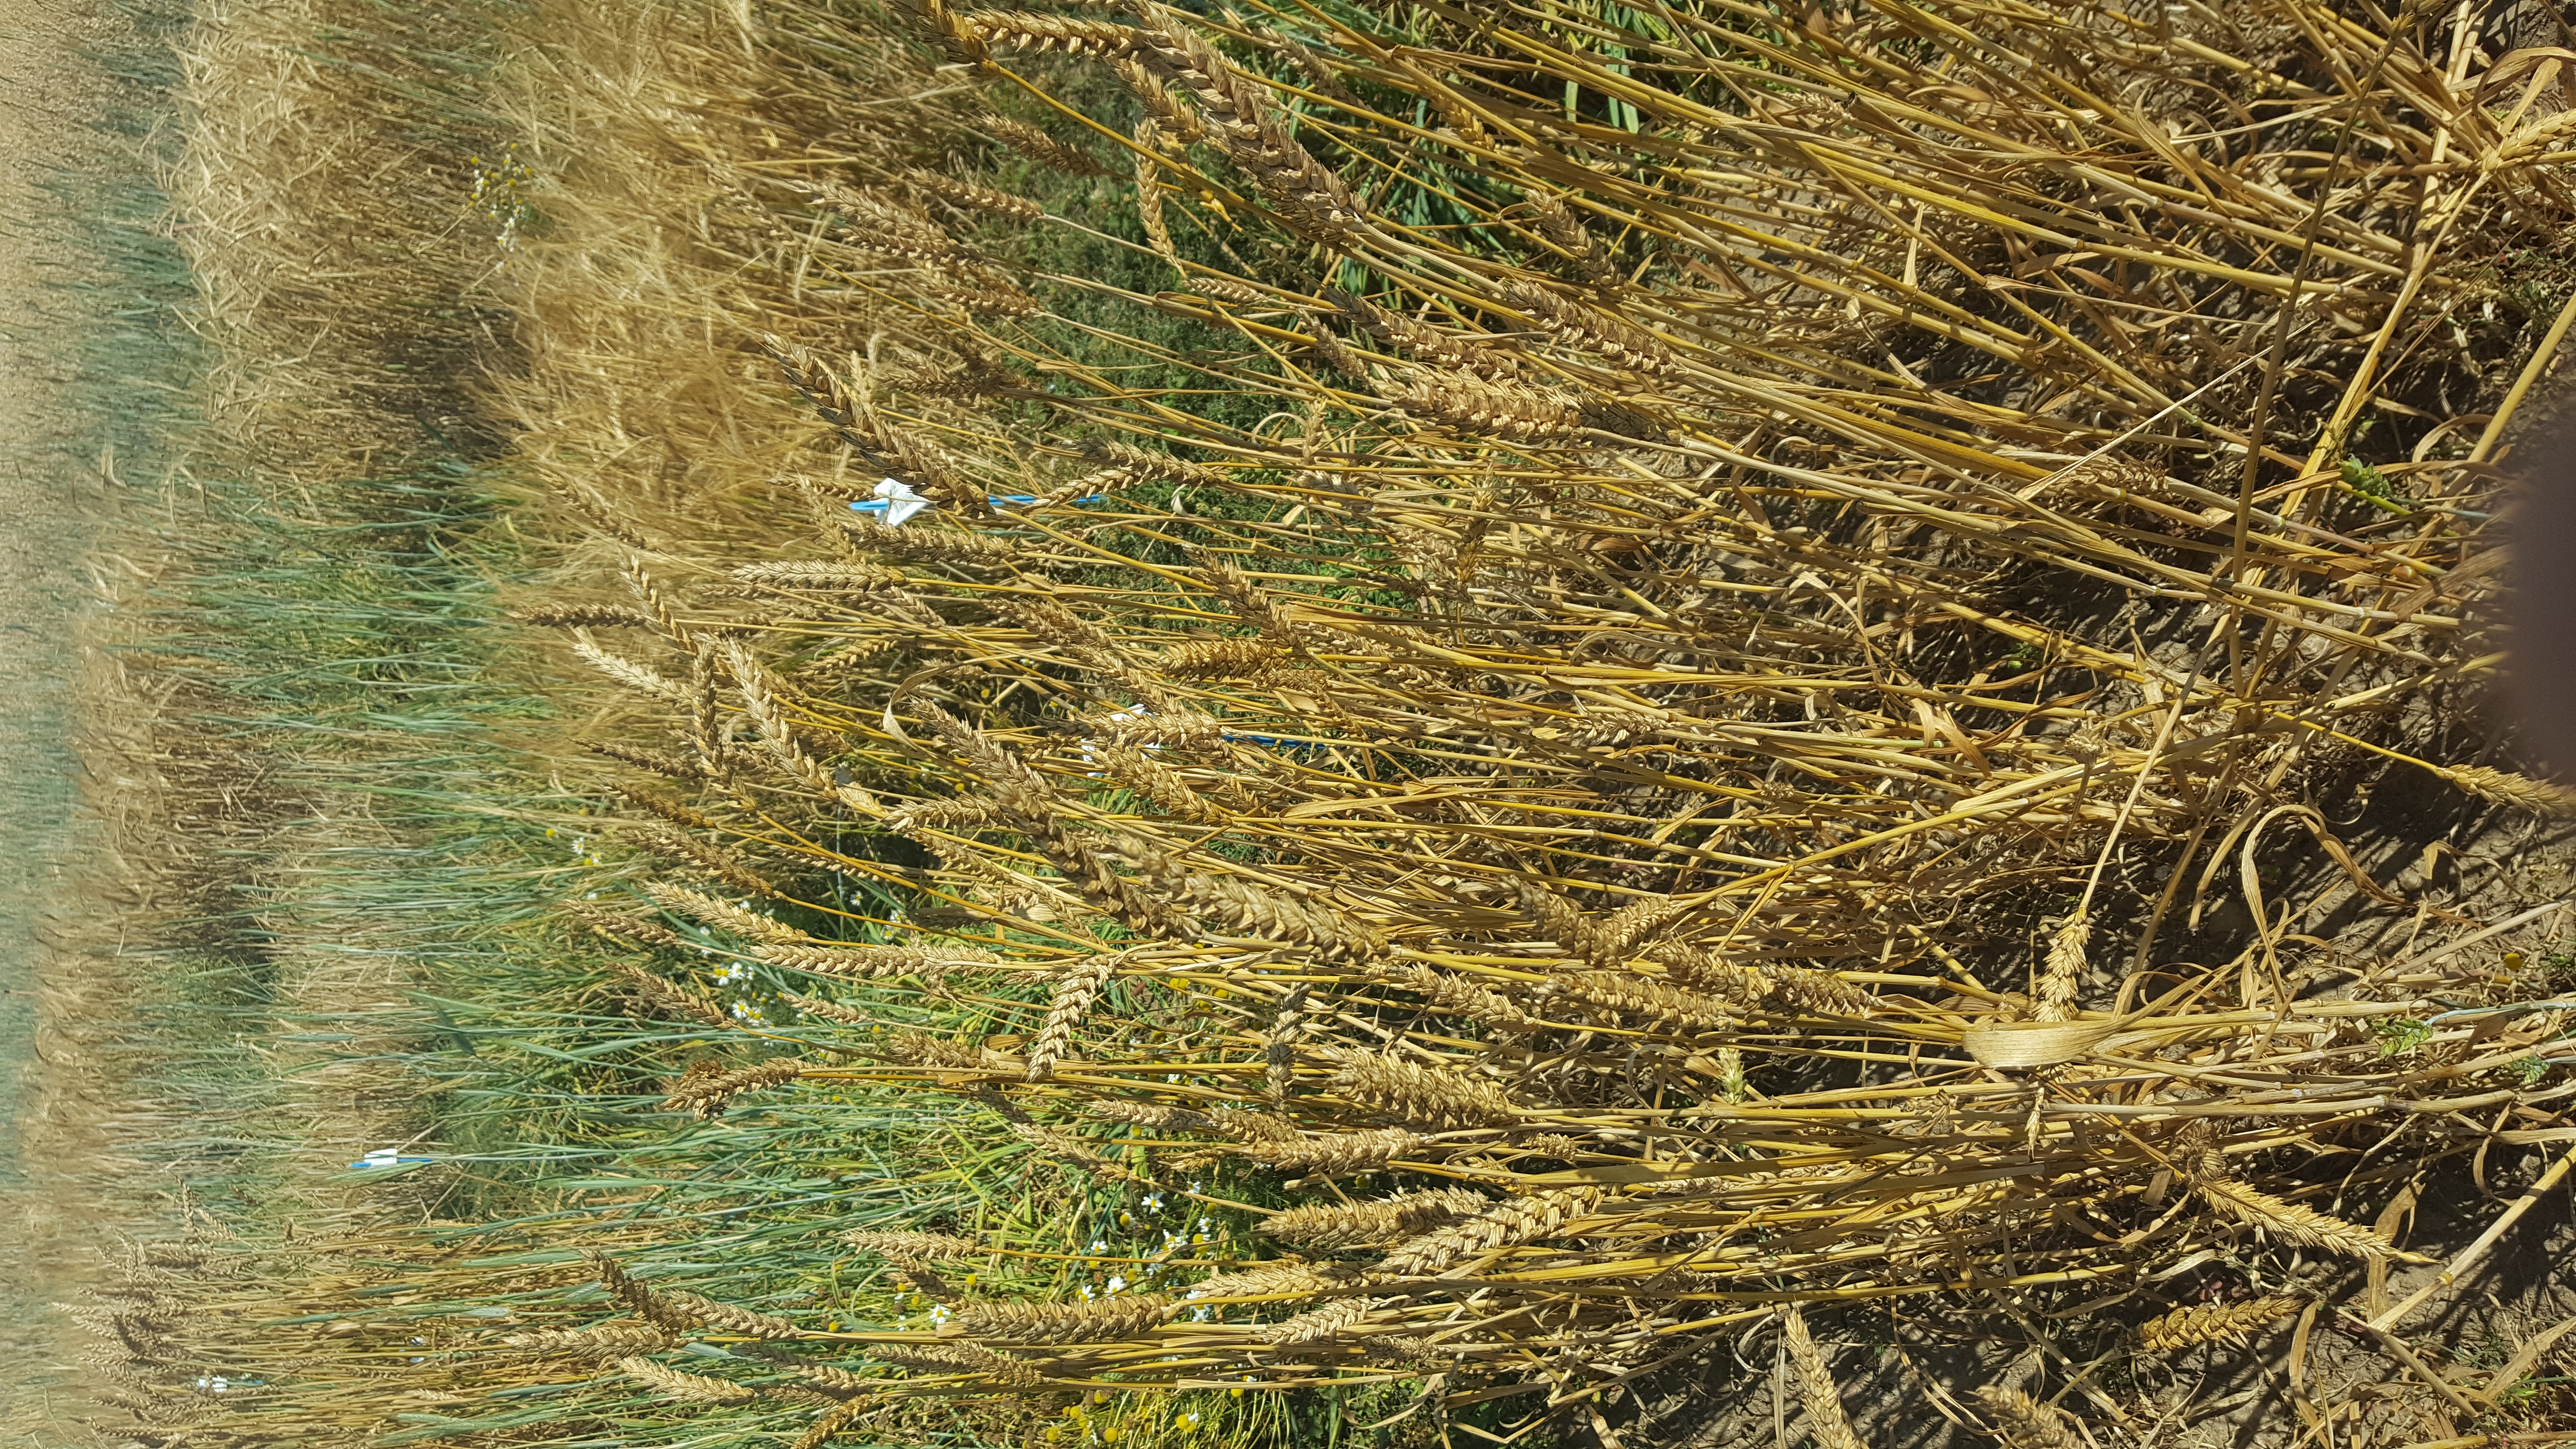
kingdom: Plantae
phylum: Tracheophyta
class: Liliopsida
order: Poales
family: Poaceae
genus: Triticum
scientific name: Triticum aestivum
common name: Common wheat
